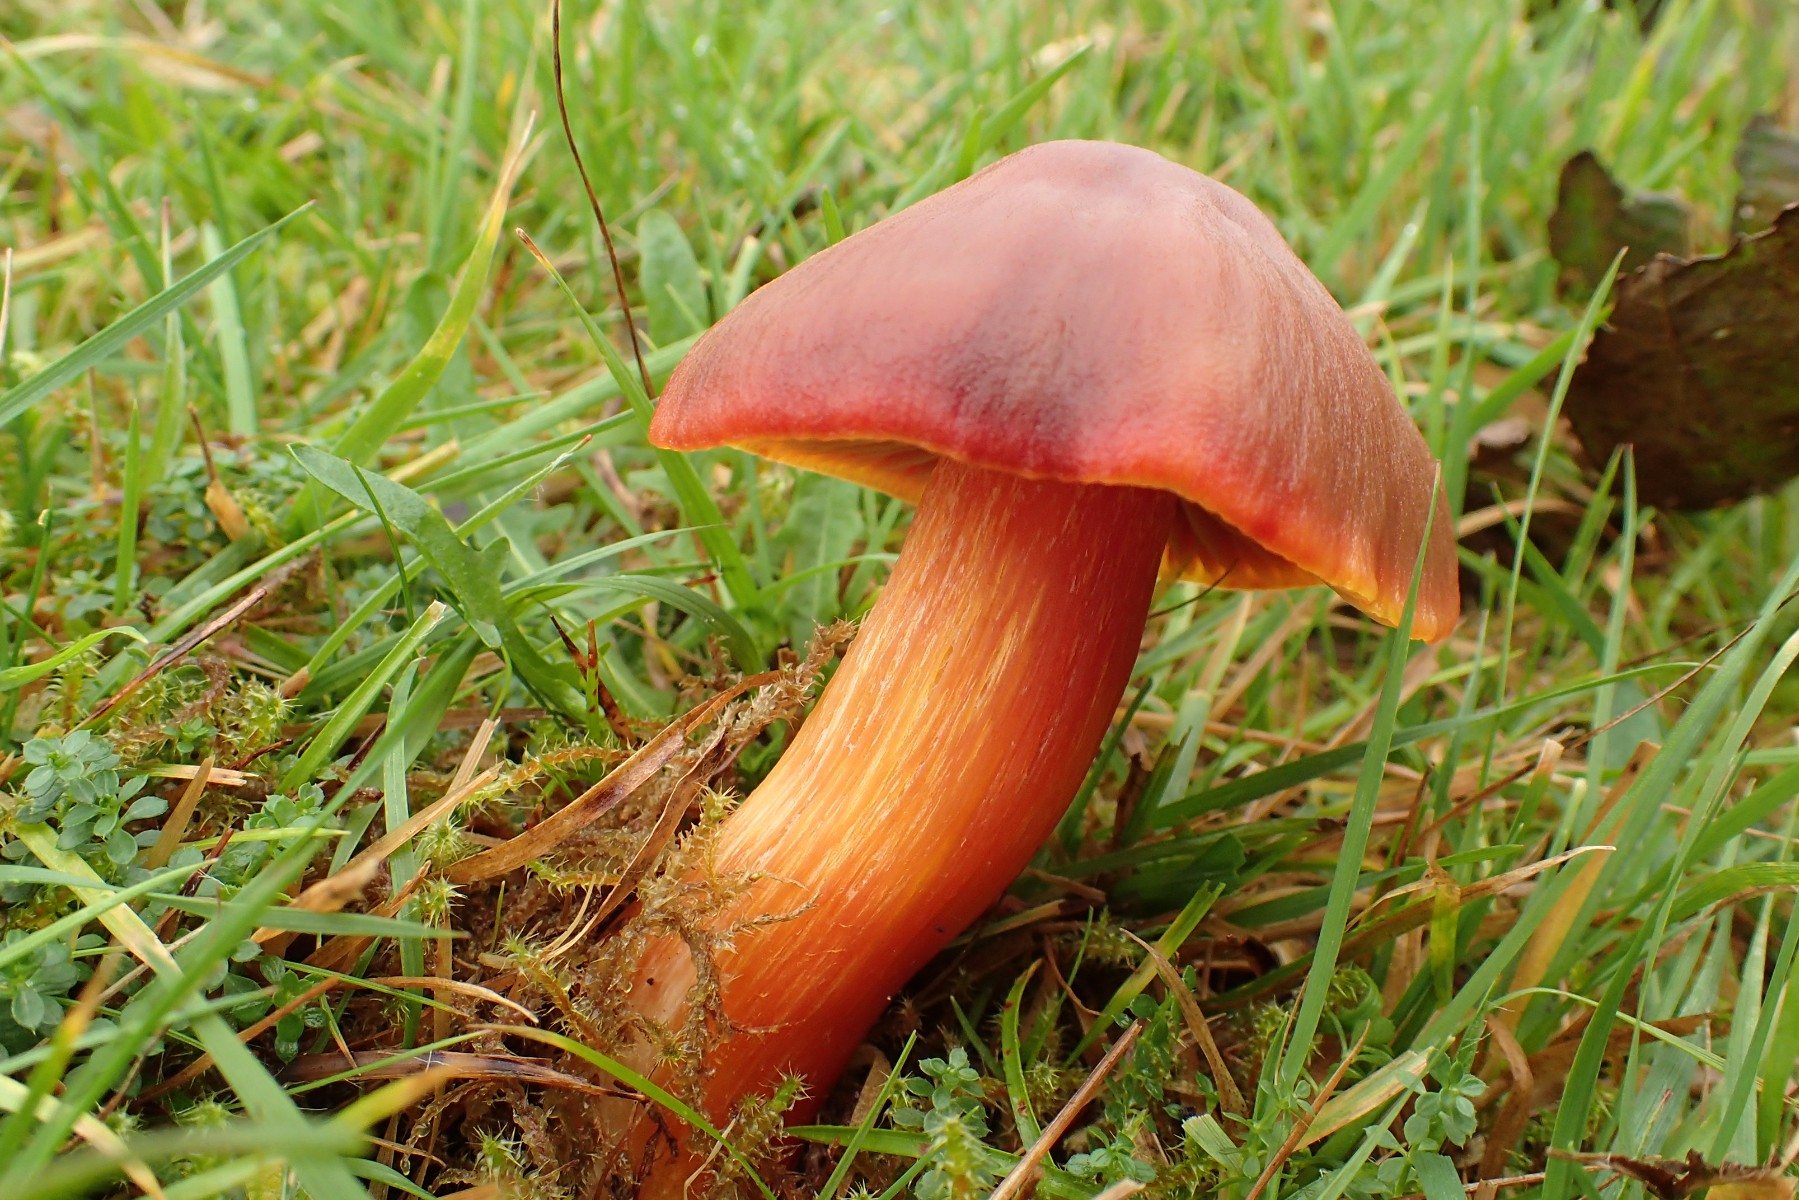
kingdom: Fungi
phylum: Basidiomycota
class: Agaricomycetes
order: Agaricales
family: Hygrophoraceae
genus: Hygrocybe
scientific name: Hygrocybe punicea
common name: skarlagen-vokshat
